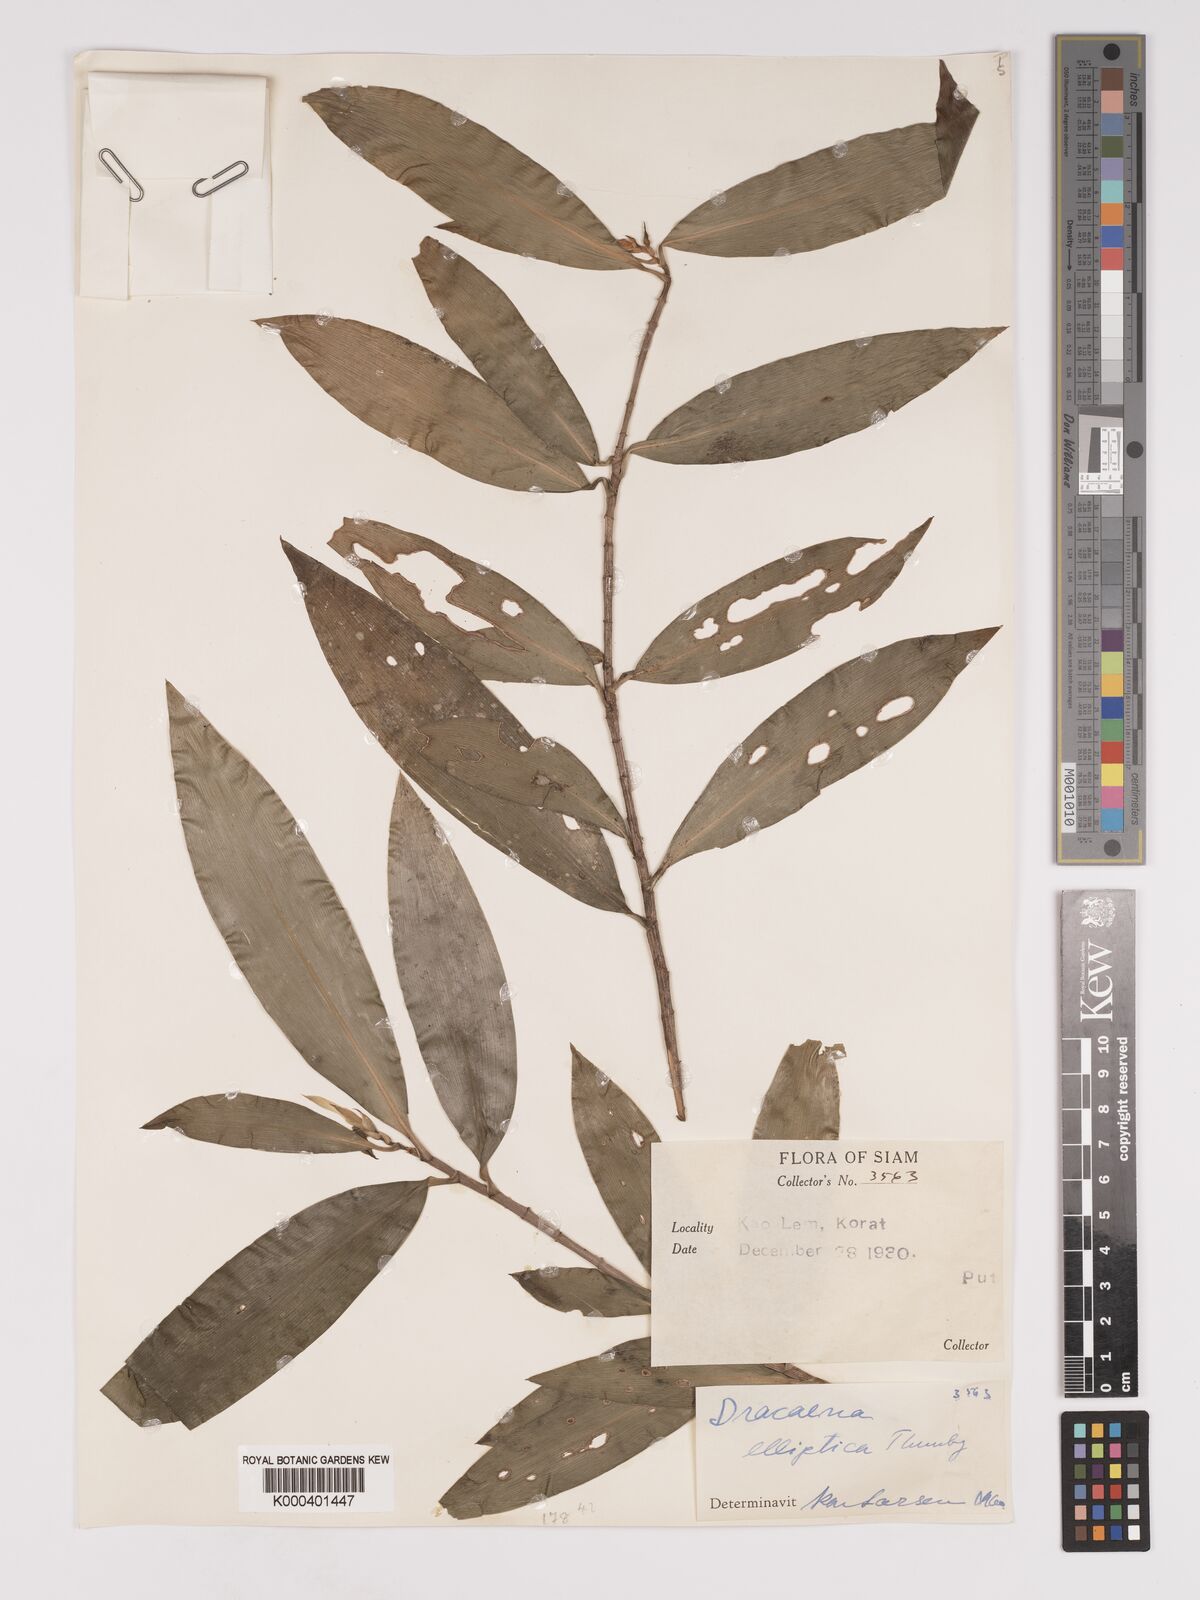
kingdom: Plantae
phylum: Tracheophyta
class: Liliopsida
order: Asparagales
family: Asparagaceae
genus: Dracaena
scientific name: Dracaena elliptica
